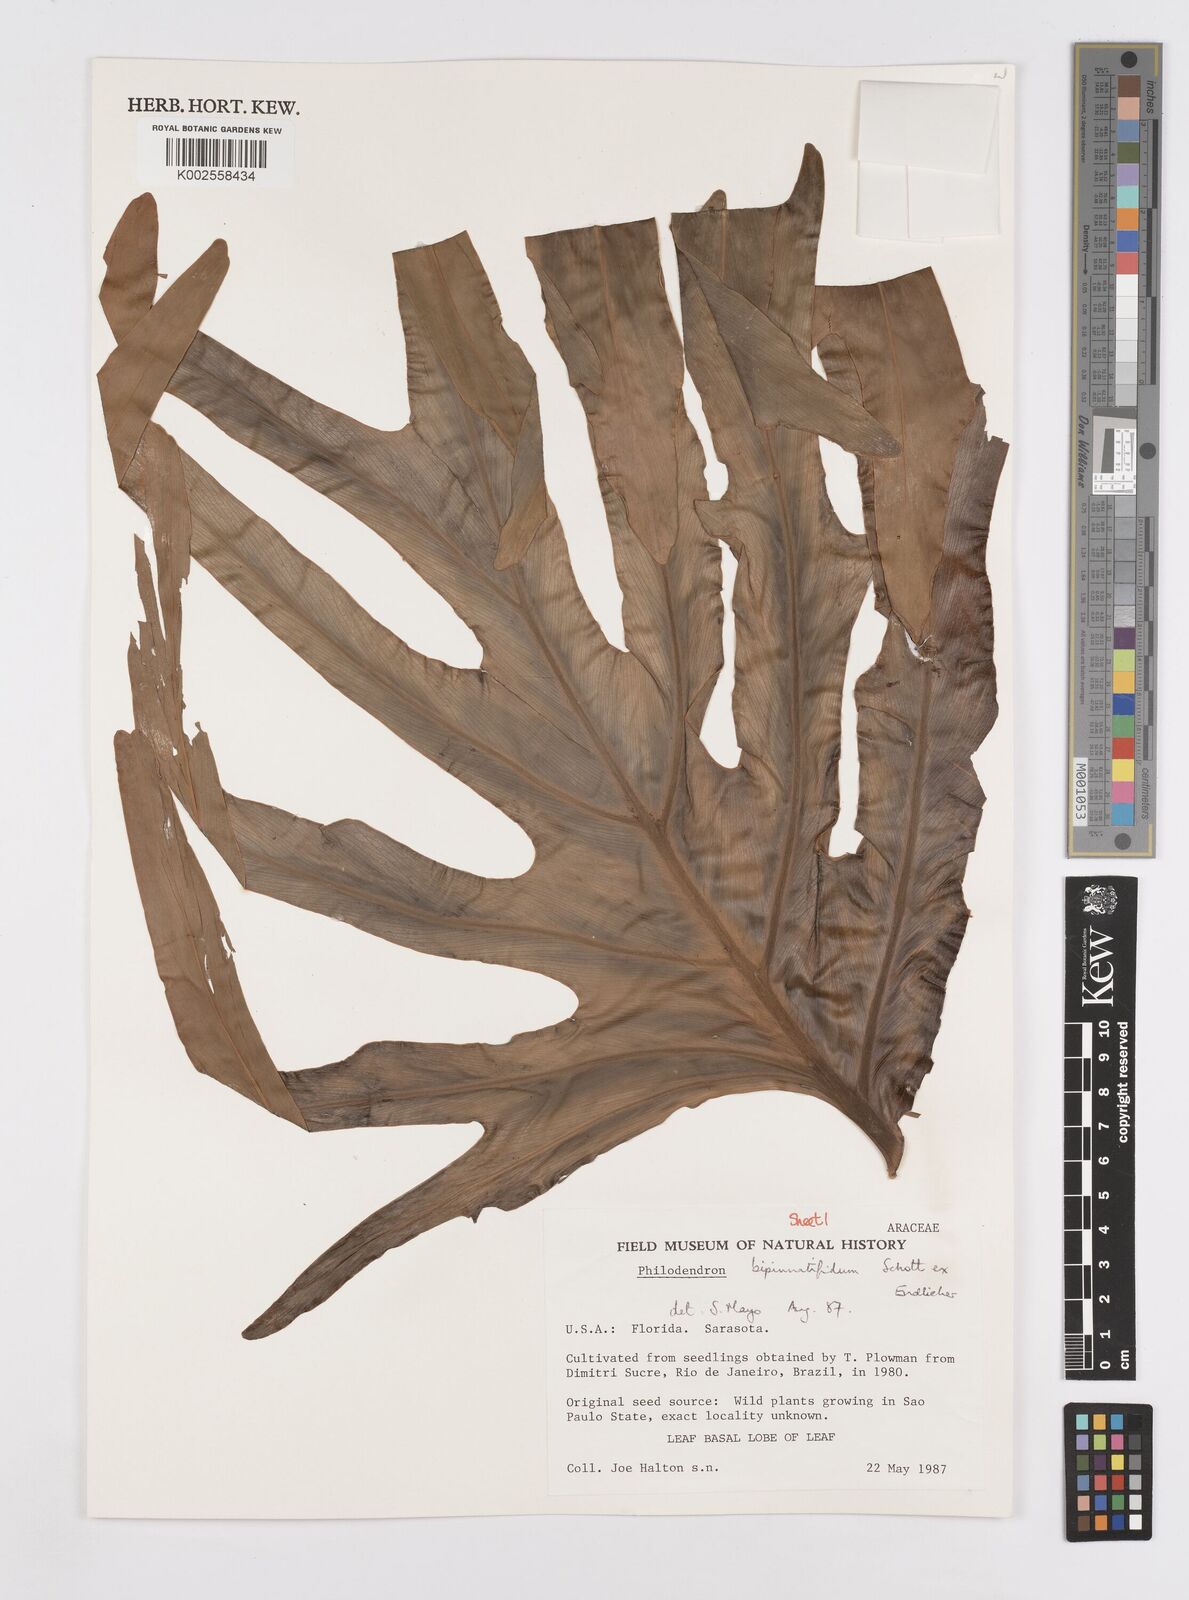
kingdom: Plantae
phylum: Tracheophyta
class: Liliopsida
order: Alismatales
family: Araceae
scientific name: Araceae
